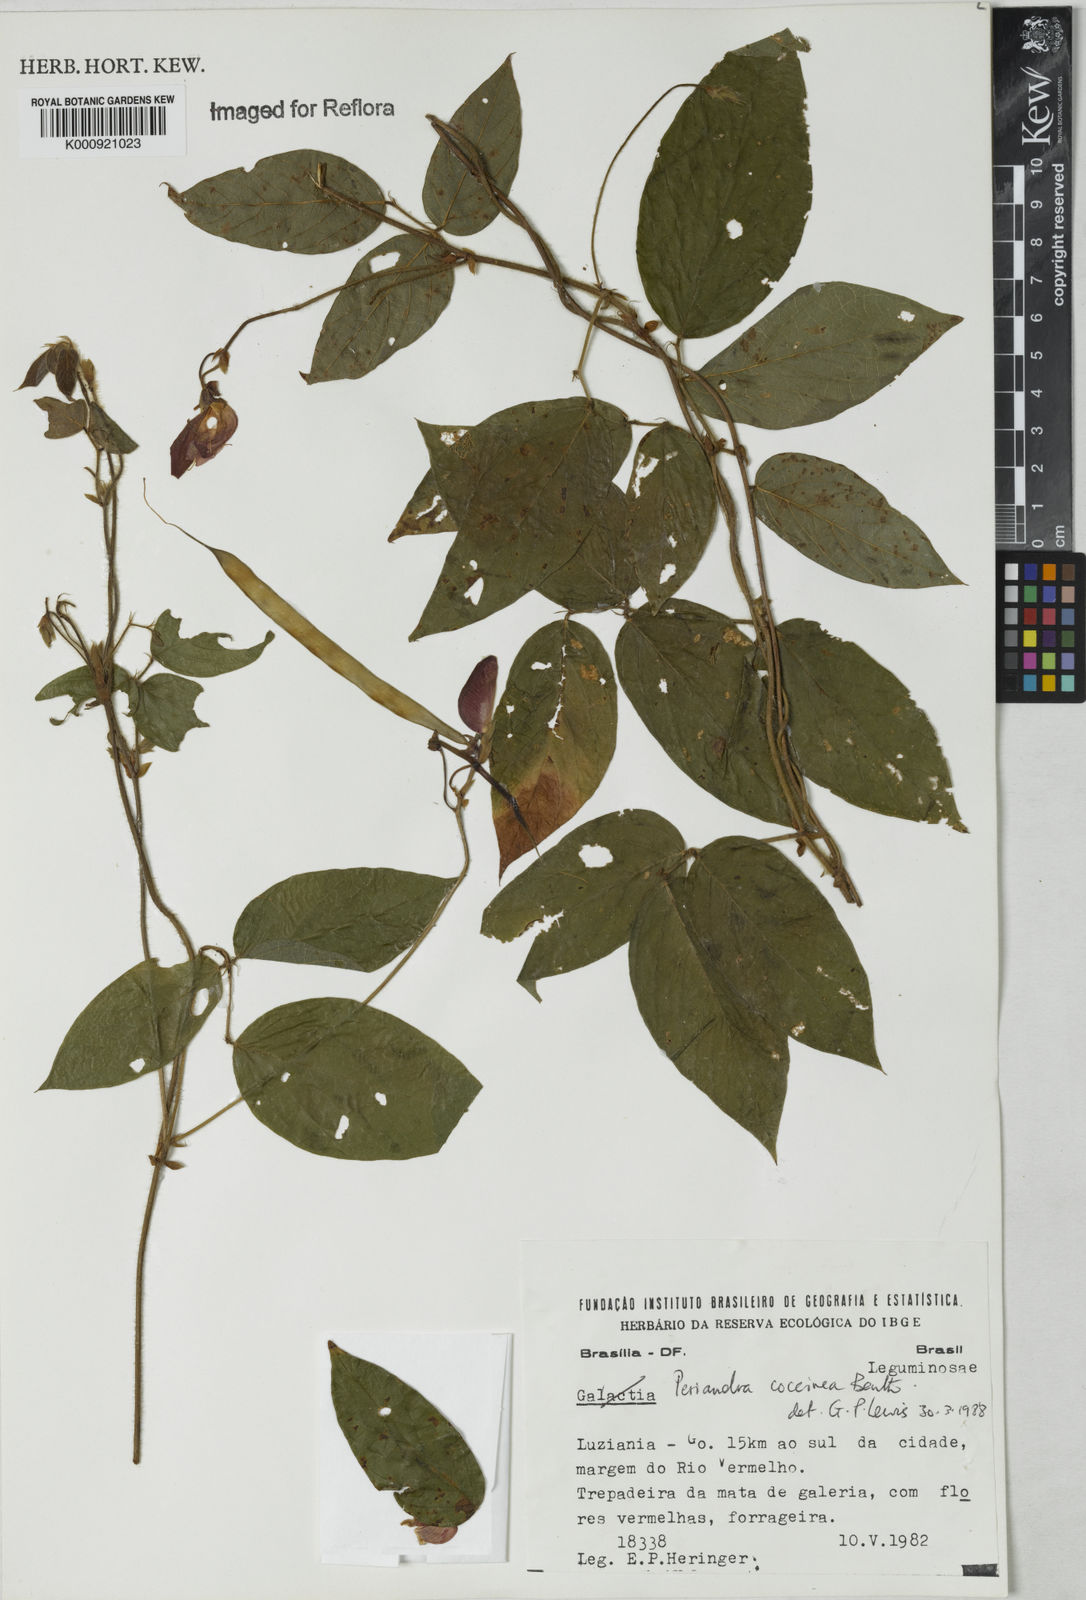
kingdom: Plantae
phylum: Tracheophyta
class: Magnoliopsida
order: Fabales
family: Fabaceae
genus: Periandra
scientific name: Periandra coccinea
